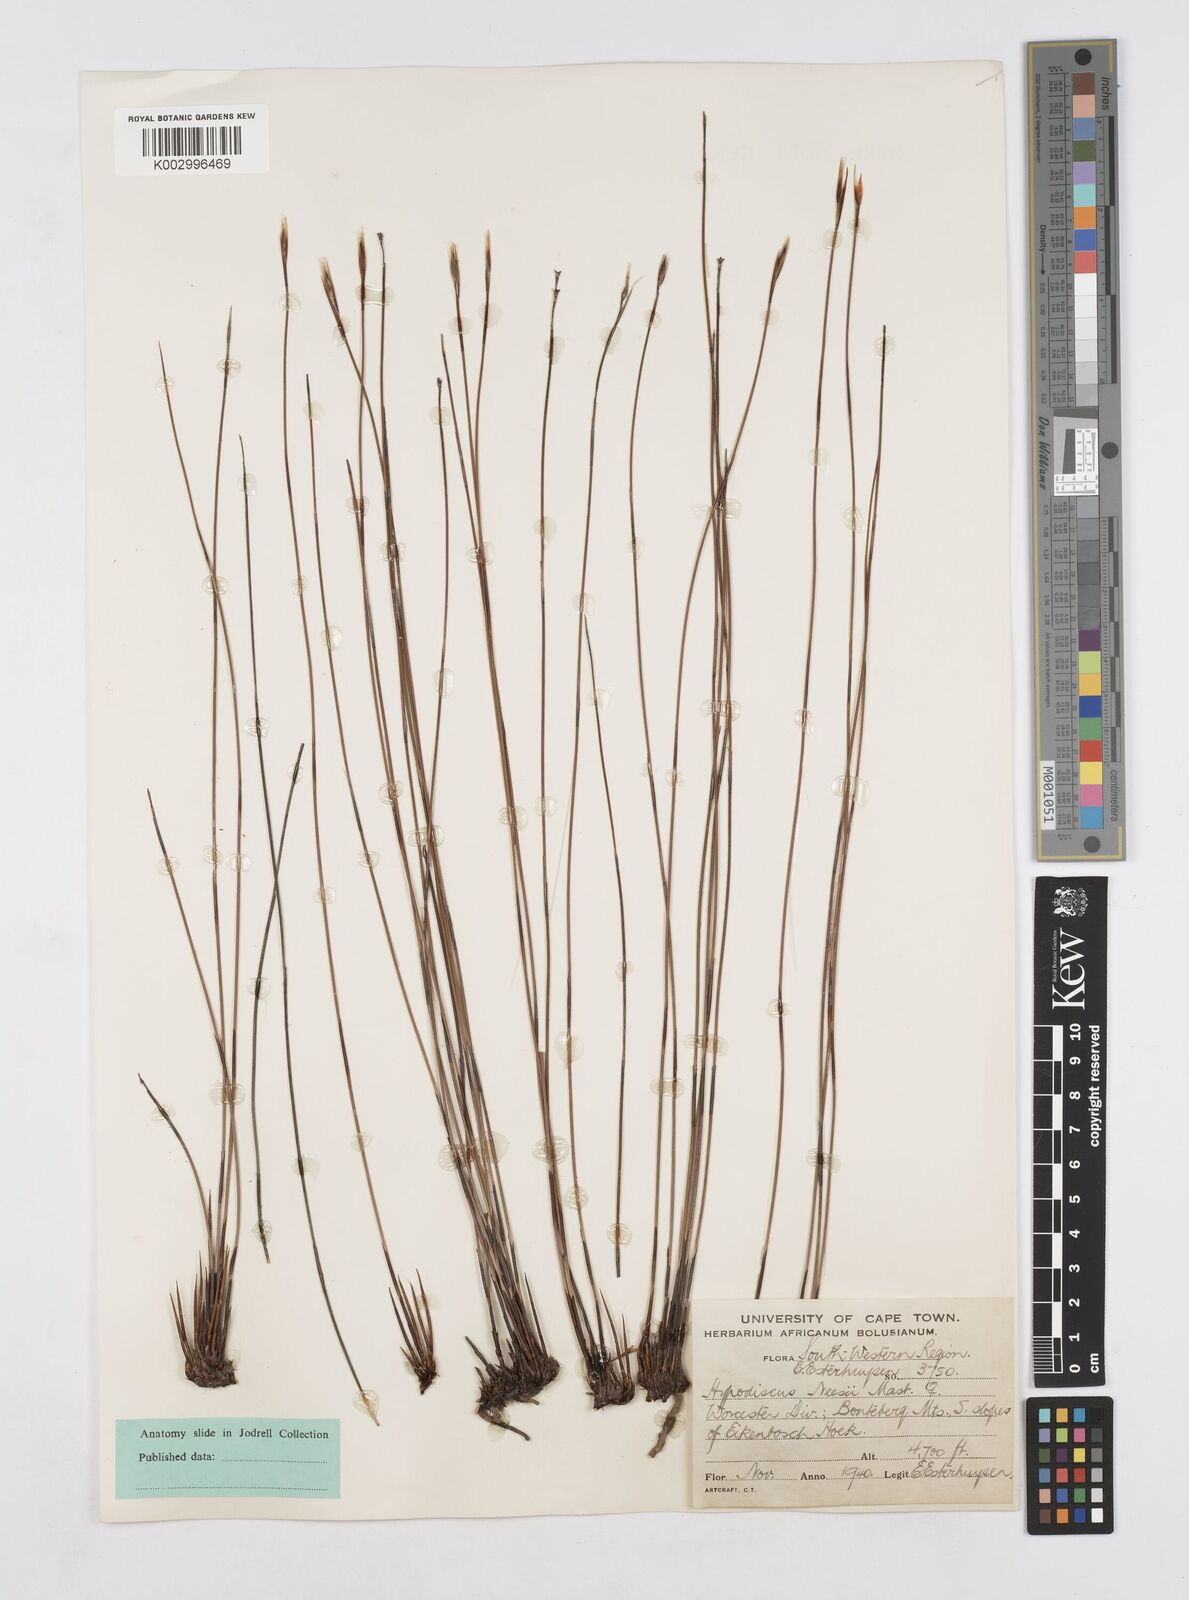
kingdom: Plantae
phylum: Tracheophyta
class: Liliopsida
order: Poales
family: Restionaceae
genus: Hypodiscus
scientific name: Hypodiscus neesii
